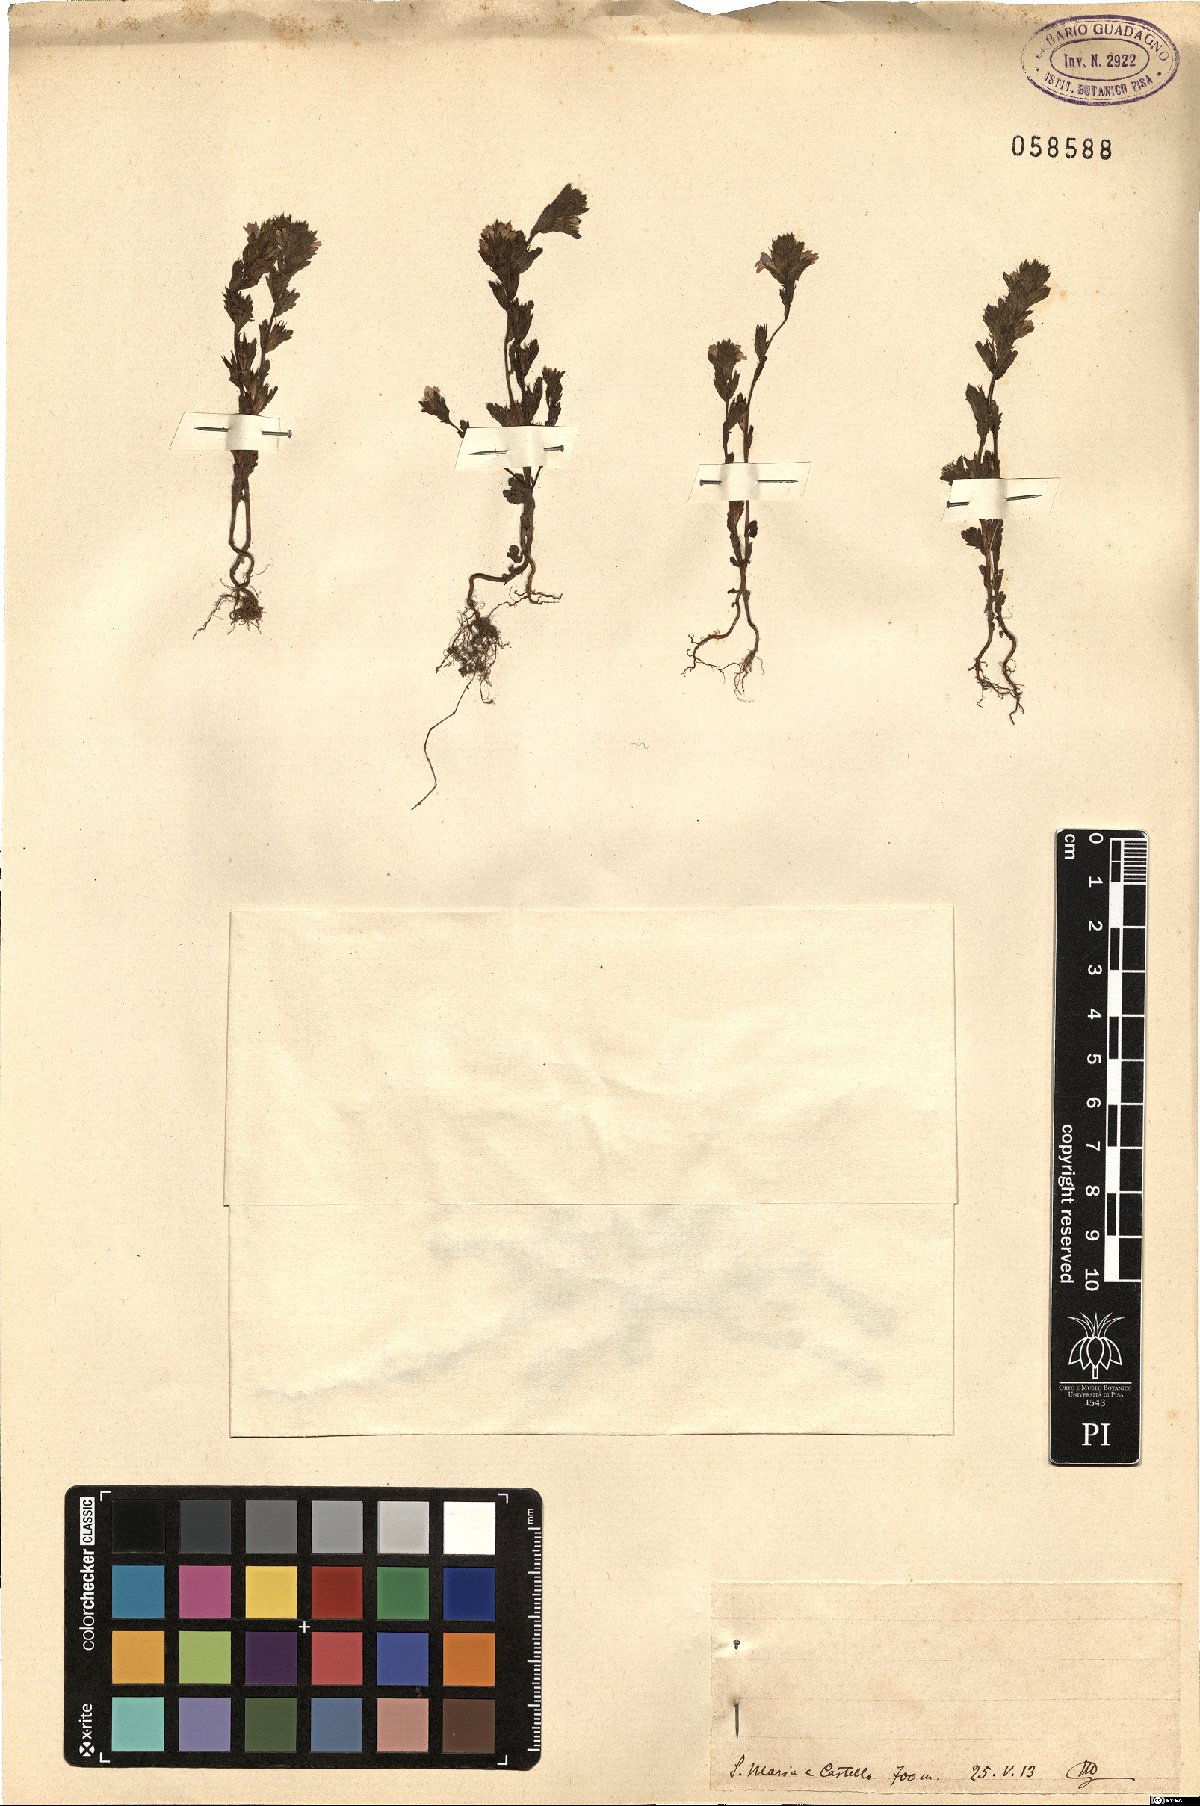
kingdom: Plantae
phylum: Tracheophyta
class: Magnoliopsida
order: Lamiales
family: Orobanchaceae
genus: Euphrasia
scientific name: Euphrasia
